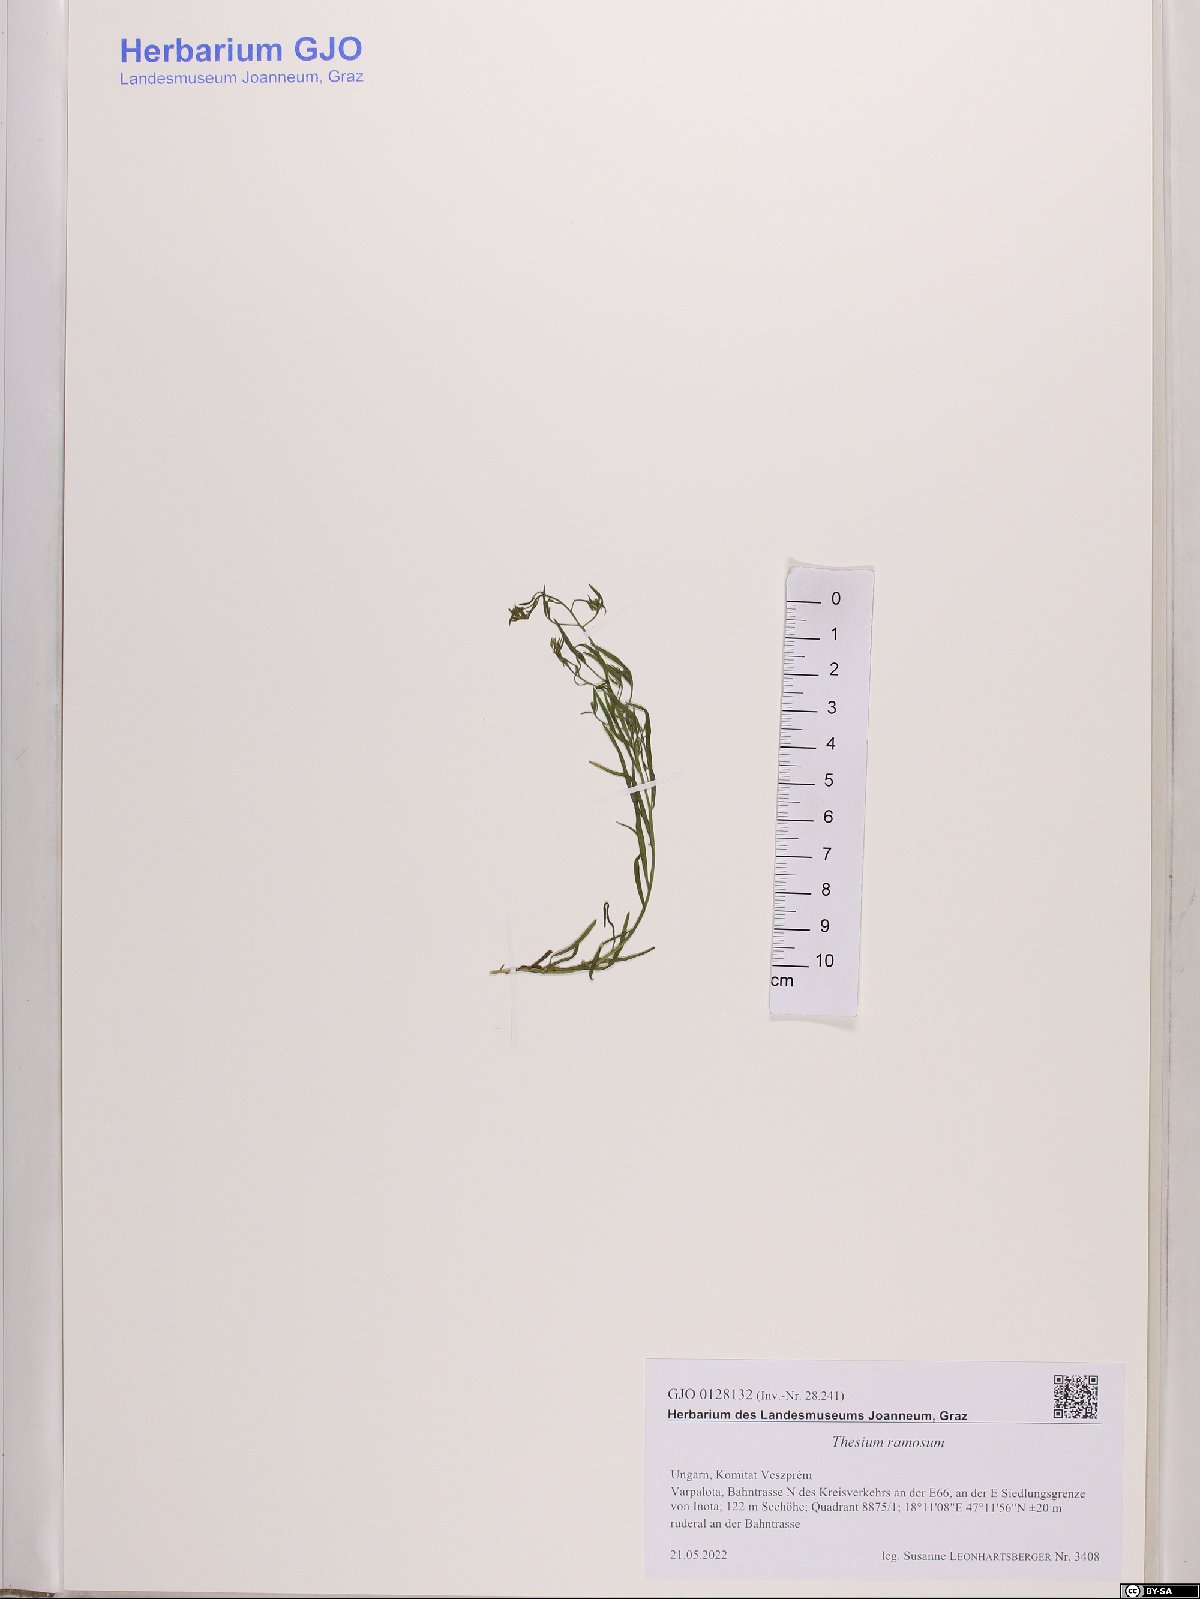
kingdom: Plantae
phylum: Tracheophyta
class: Magnoliopsida
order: Santalales
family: Thesiaceae
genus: Thesium
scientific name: Thesium ramosum
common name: Field thesium
